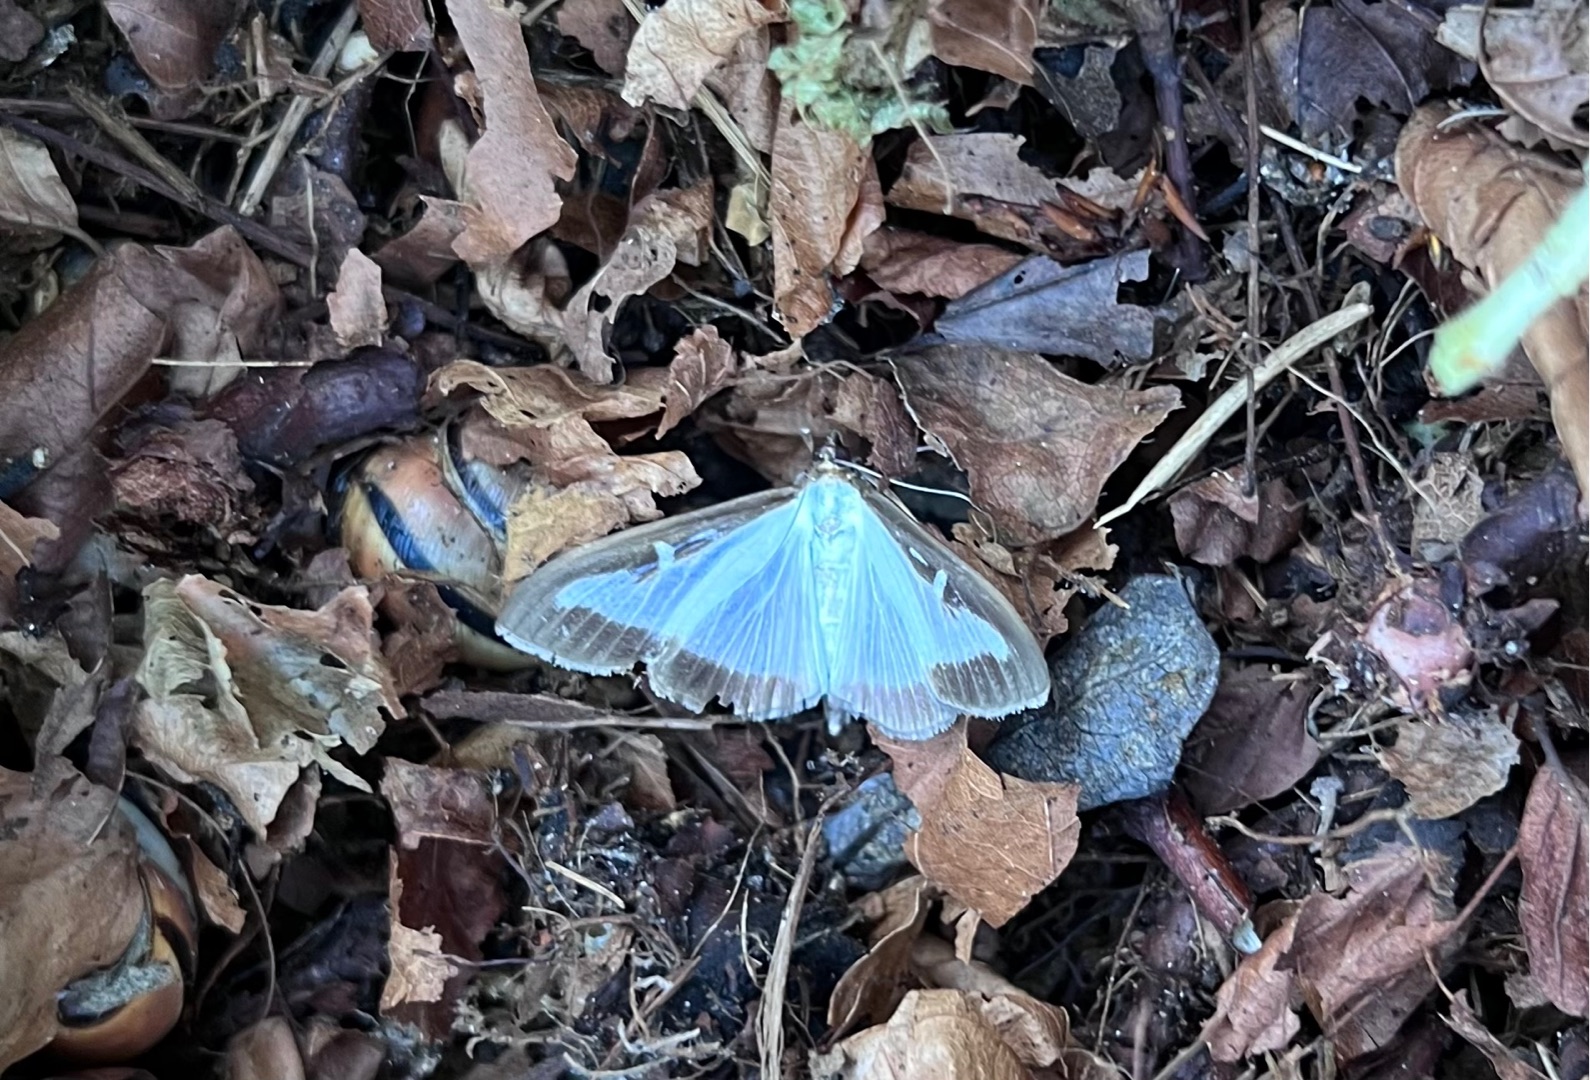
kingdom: Animalia
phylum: Arthropoda
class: Insecta
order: Lepidoptera
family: Crambidae
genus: Cydalima
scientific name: Cydalima perspectalis
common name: Buksbomhalvmøl
